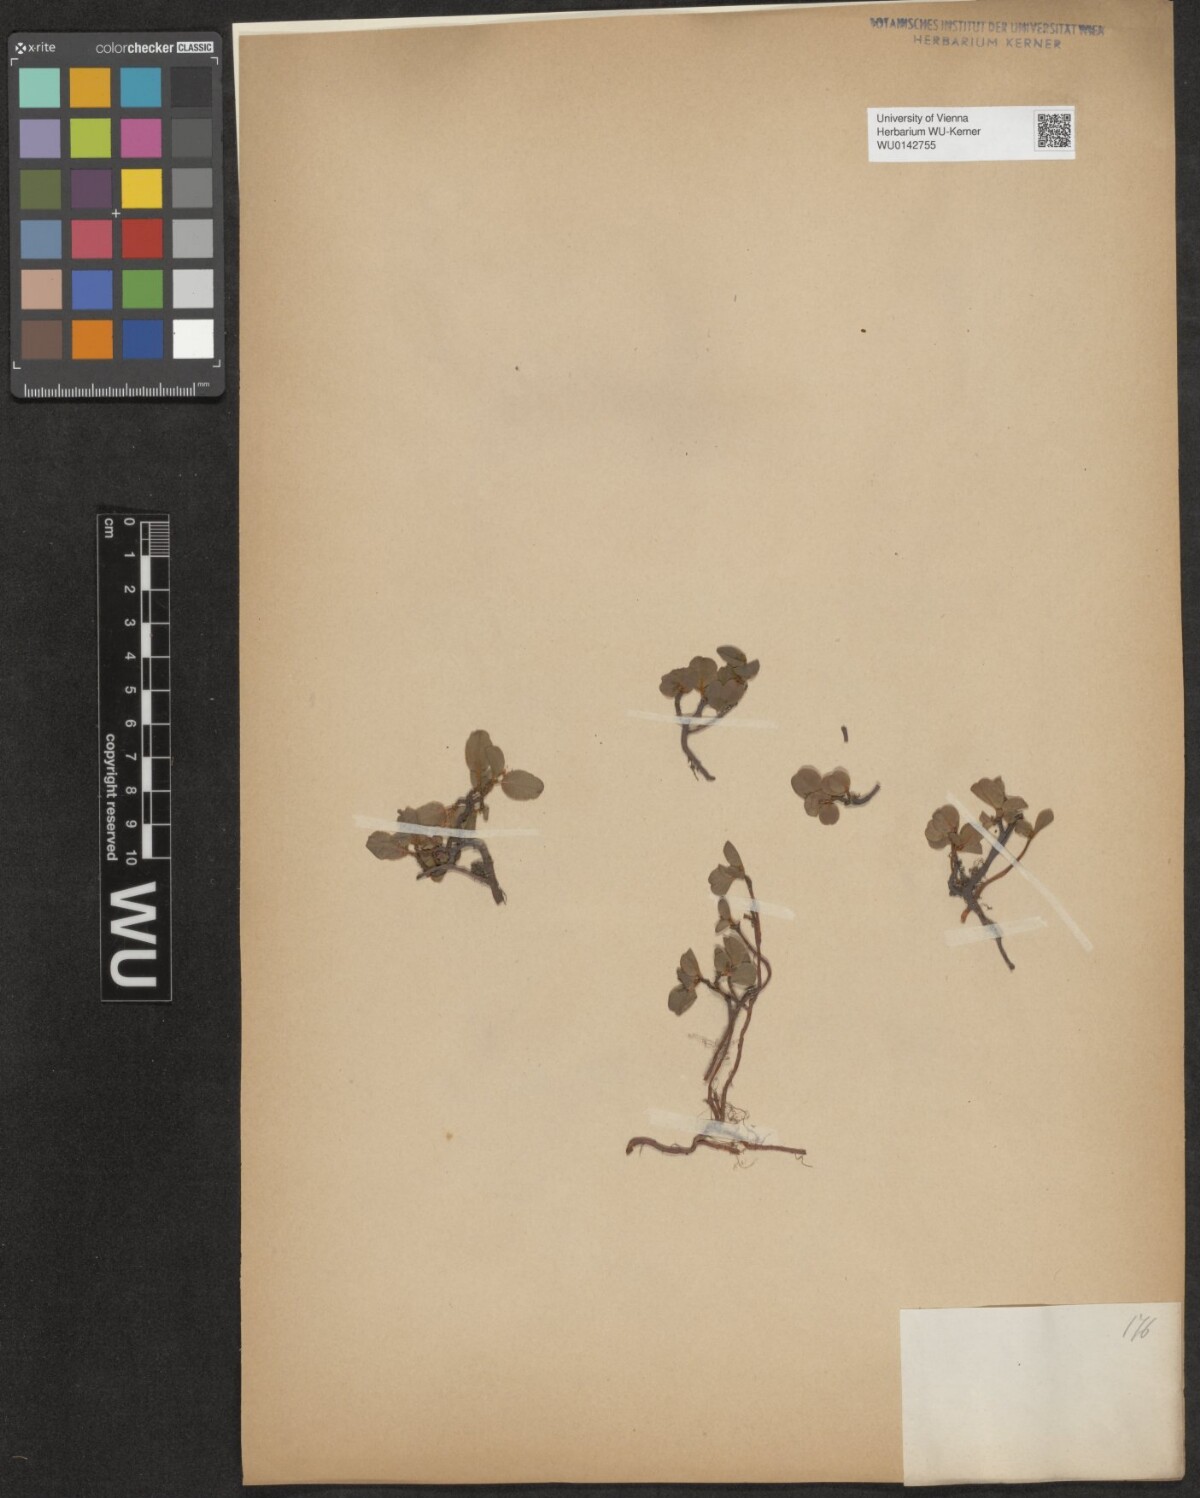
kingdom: Plantae
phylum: Tracheophyta
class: Magnoliopsida
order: Malpighiales
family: Salicaceae
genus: Salix
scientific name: Salix herbacea
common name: Dwarf willow
